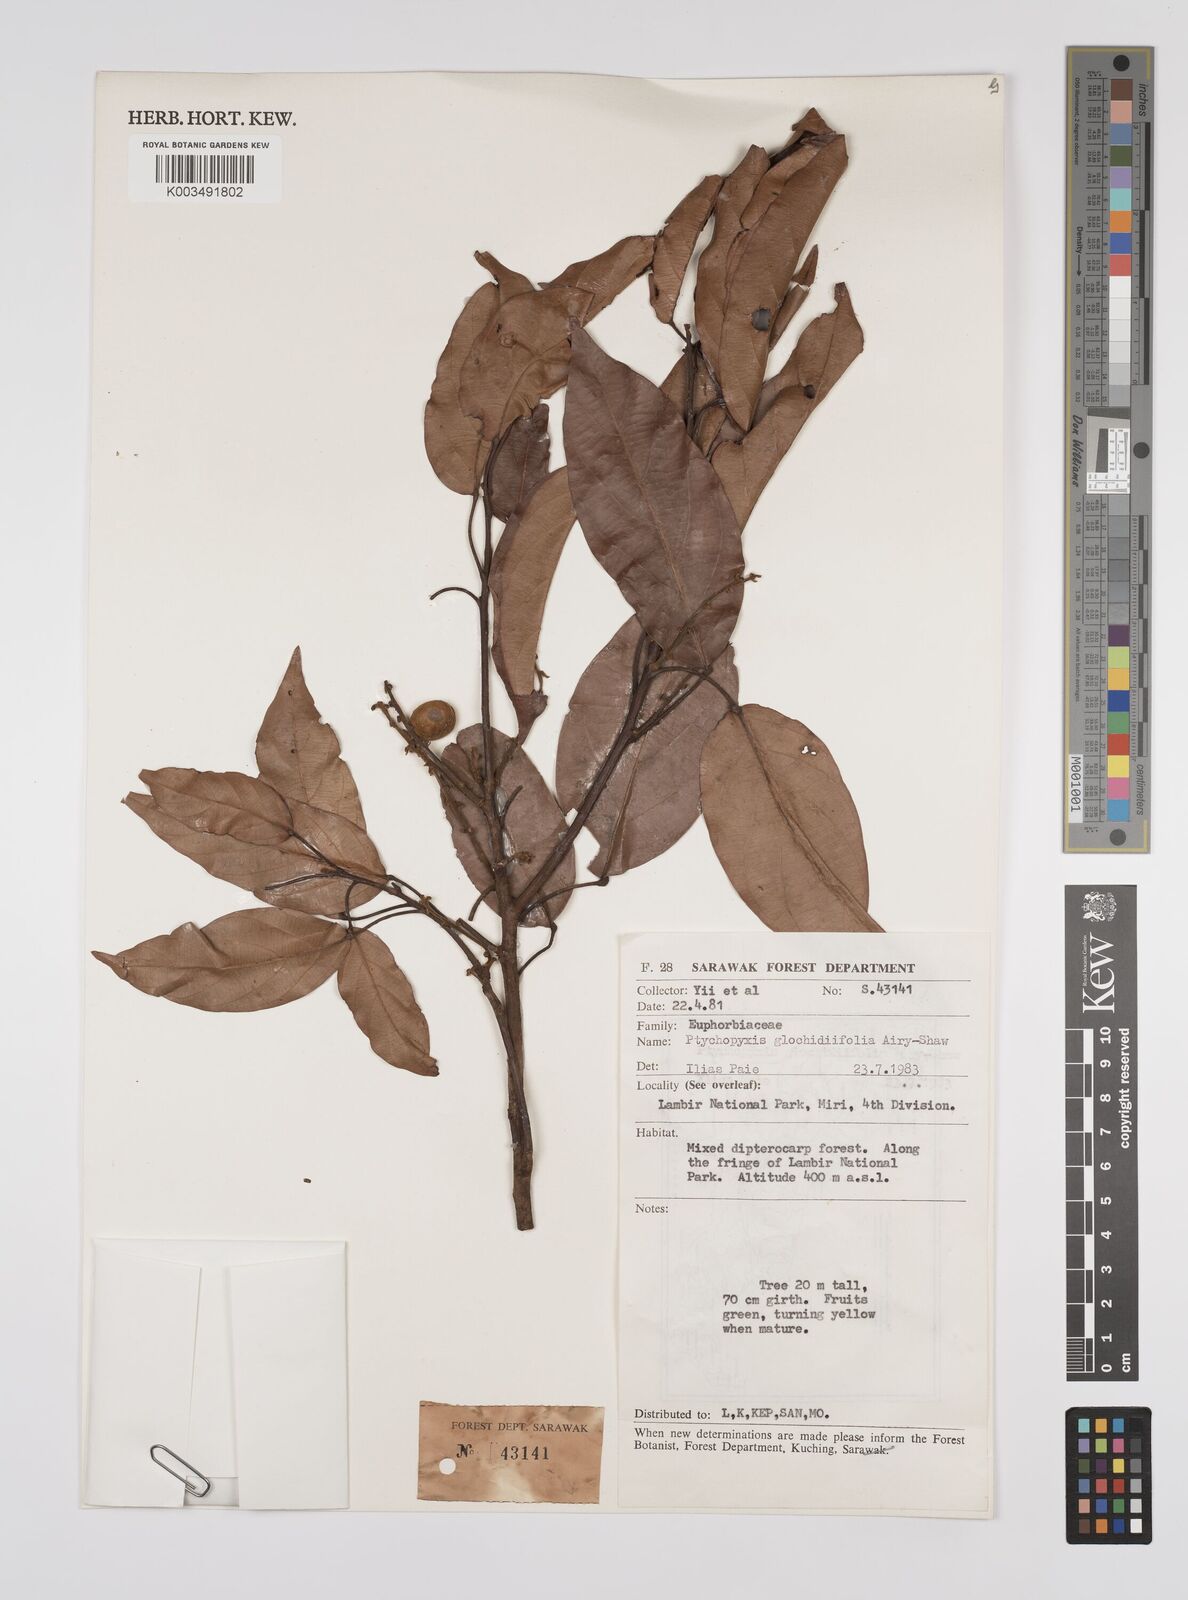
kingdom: Plantae
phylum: Tracheophyta
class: Magnoliopsida
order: Malpighiales
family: Euphorbiaceae
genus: Ptychopyxis
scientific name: Ptychopyxis glochidiifolia
